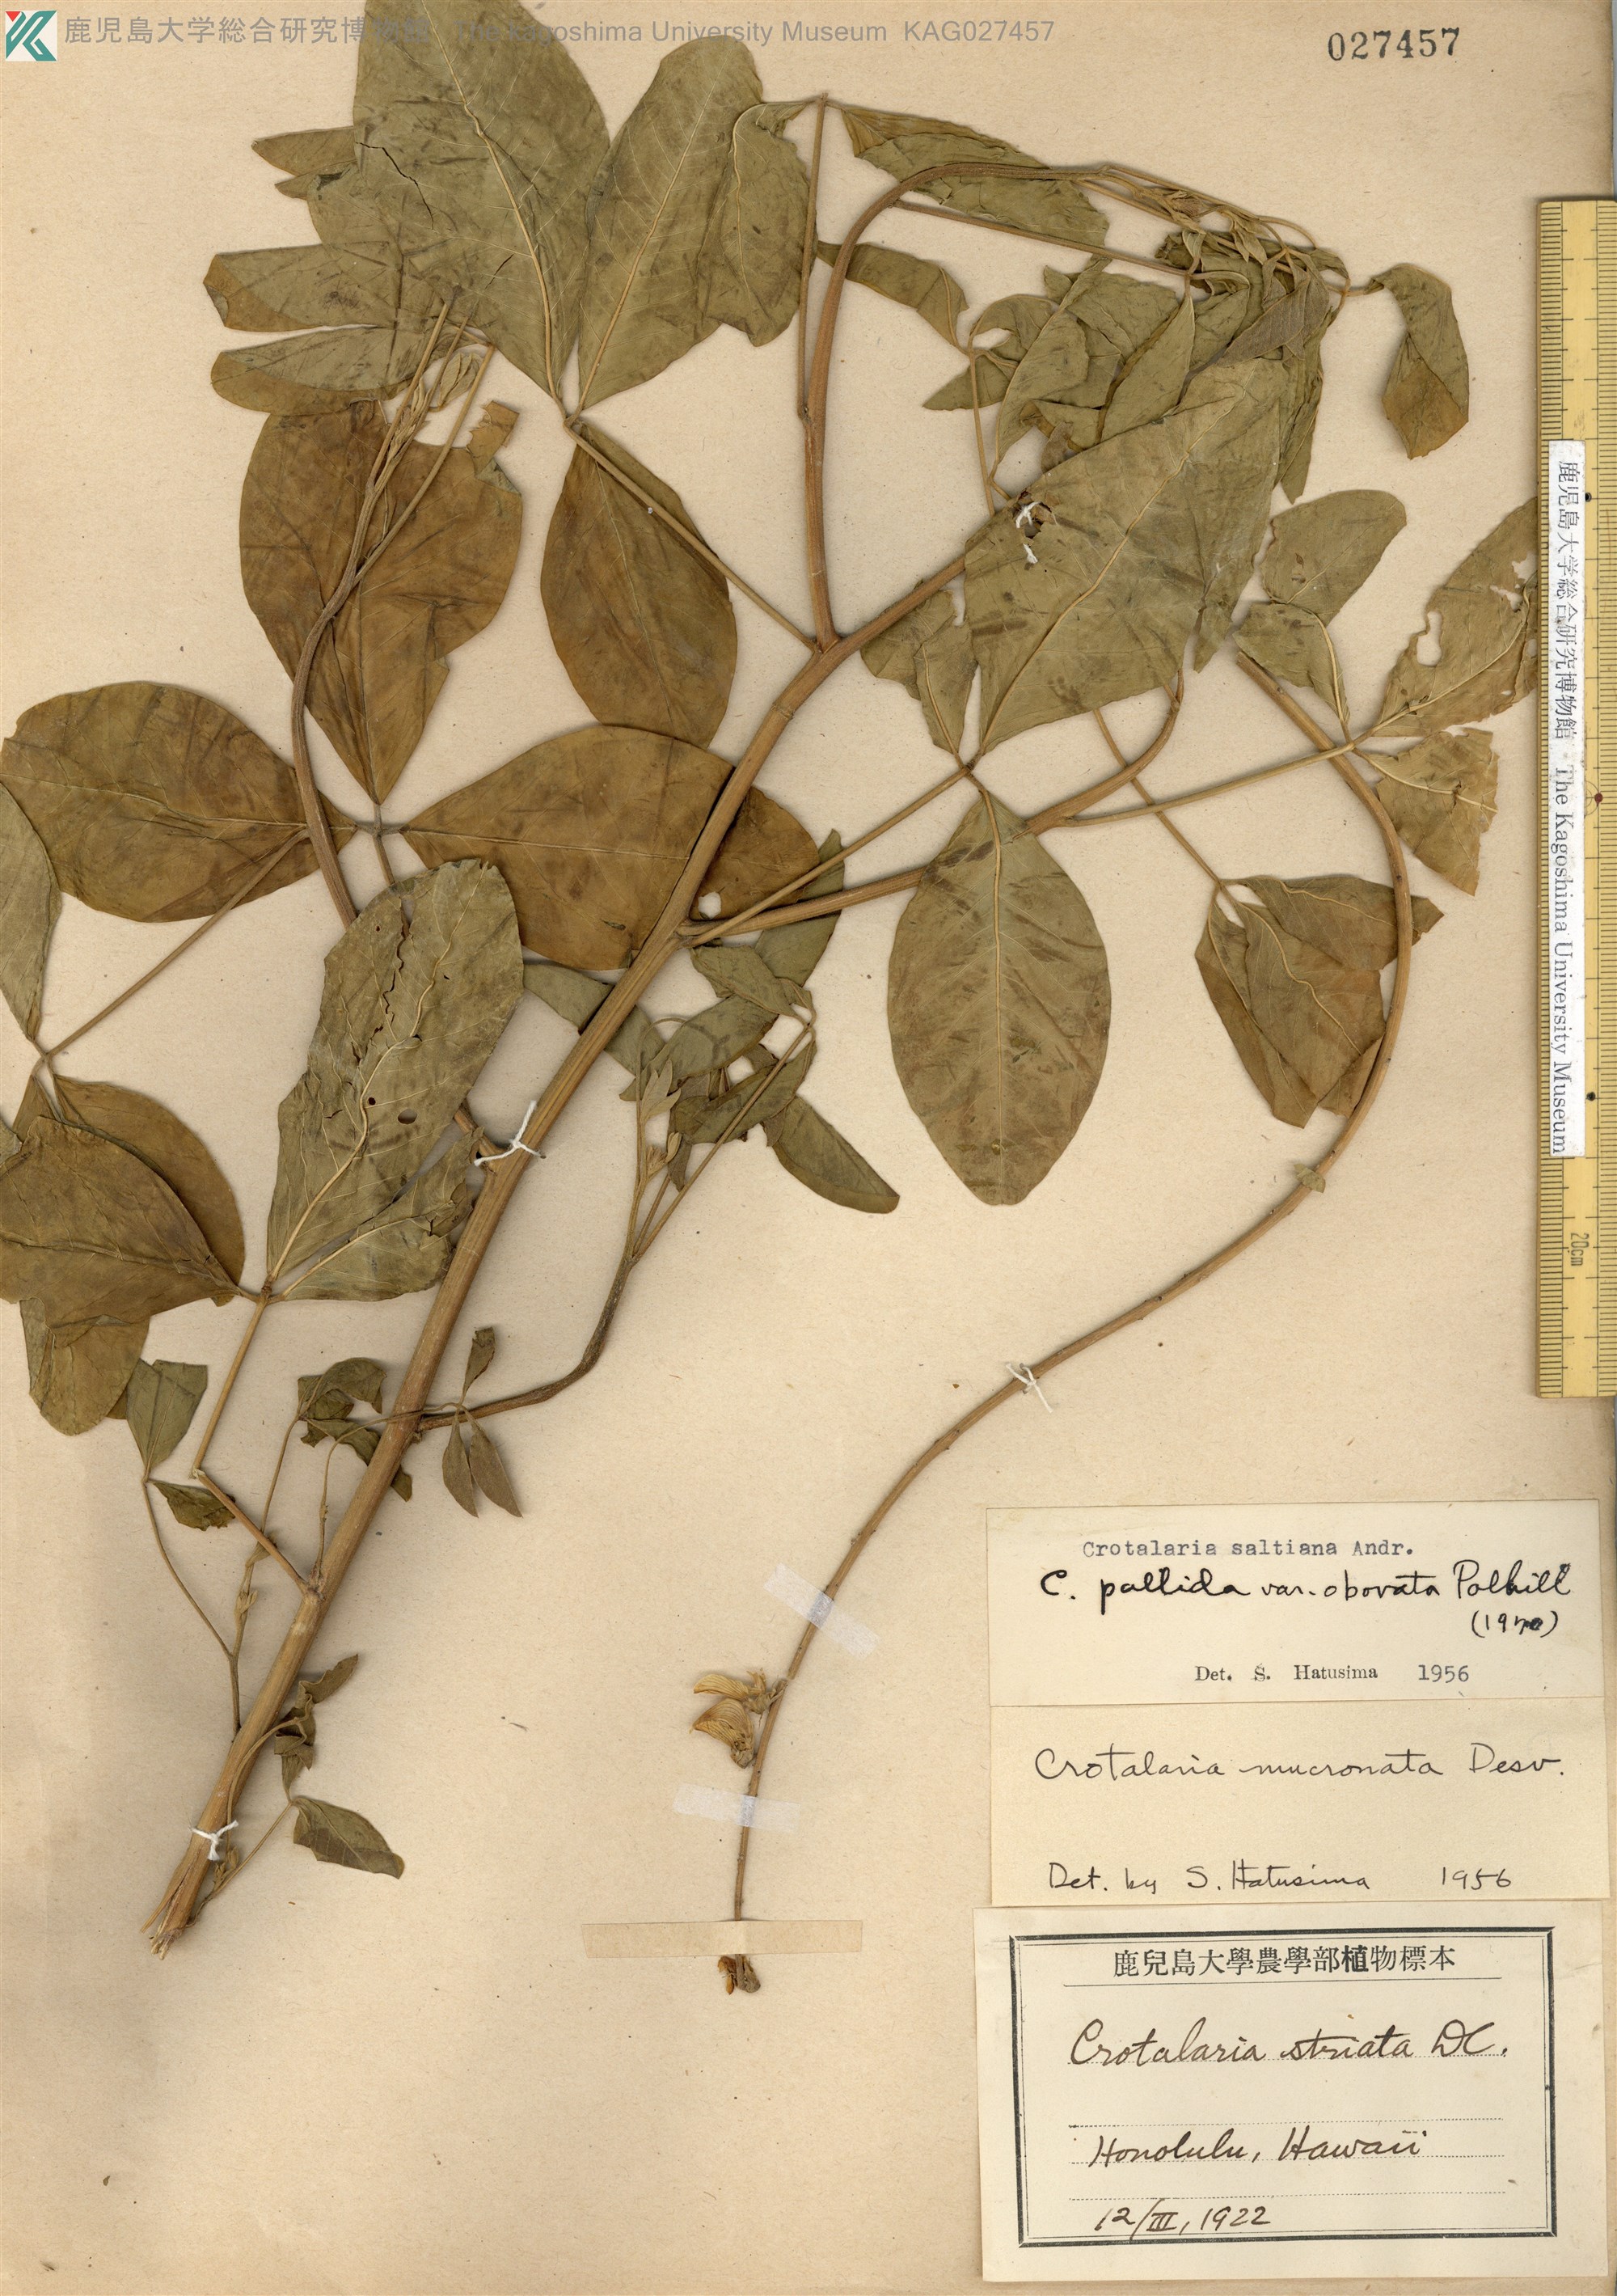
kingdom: Plantae
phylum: Tracheophyta
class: Magnoliopsida
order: Fabales
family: Fabaceae
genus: Crotalaria
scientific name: Crotalaria pallida
